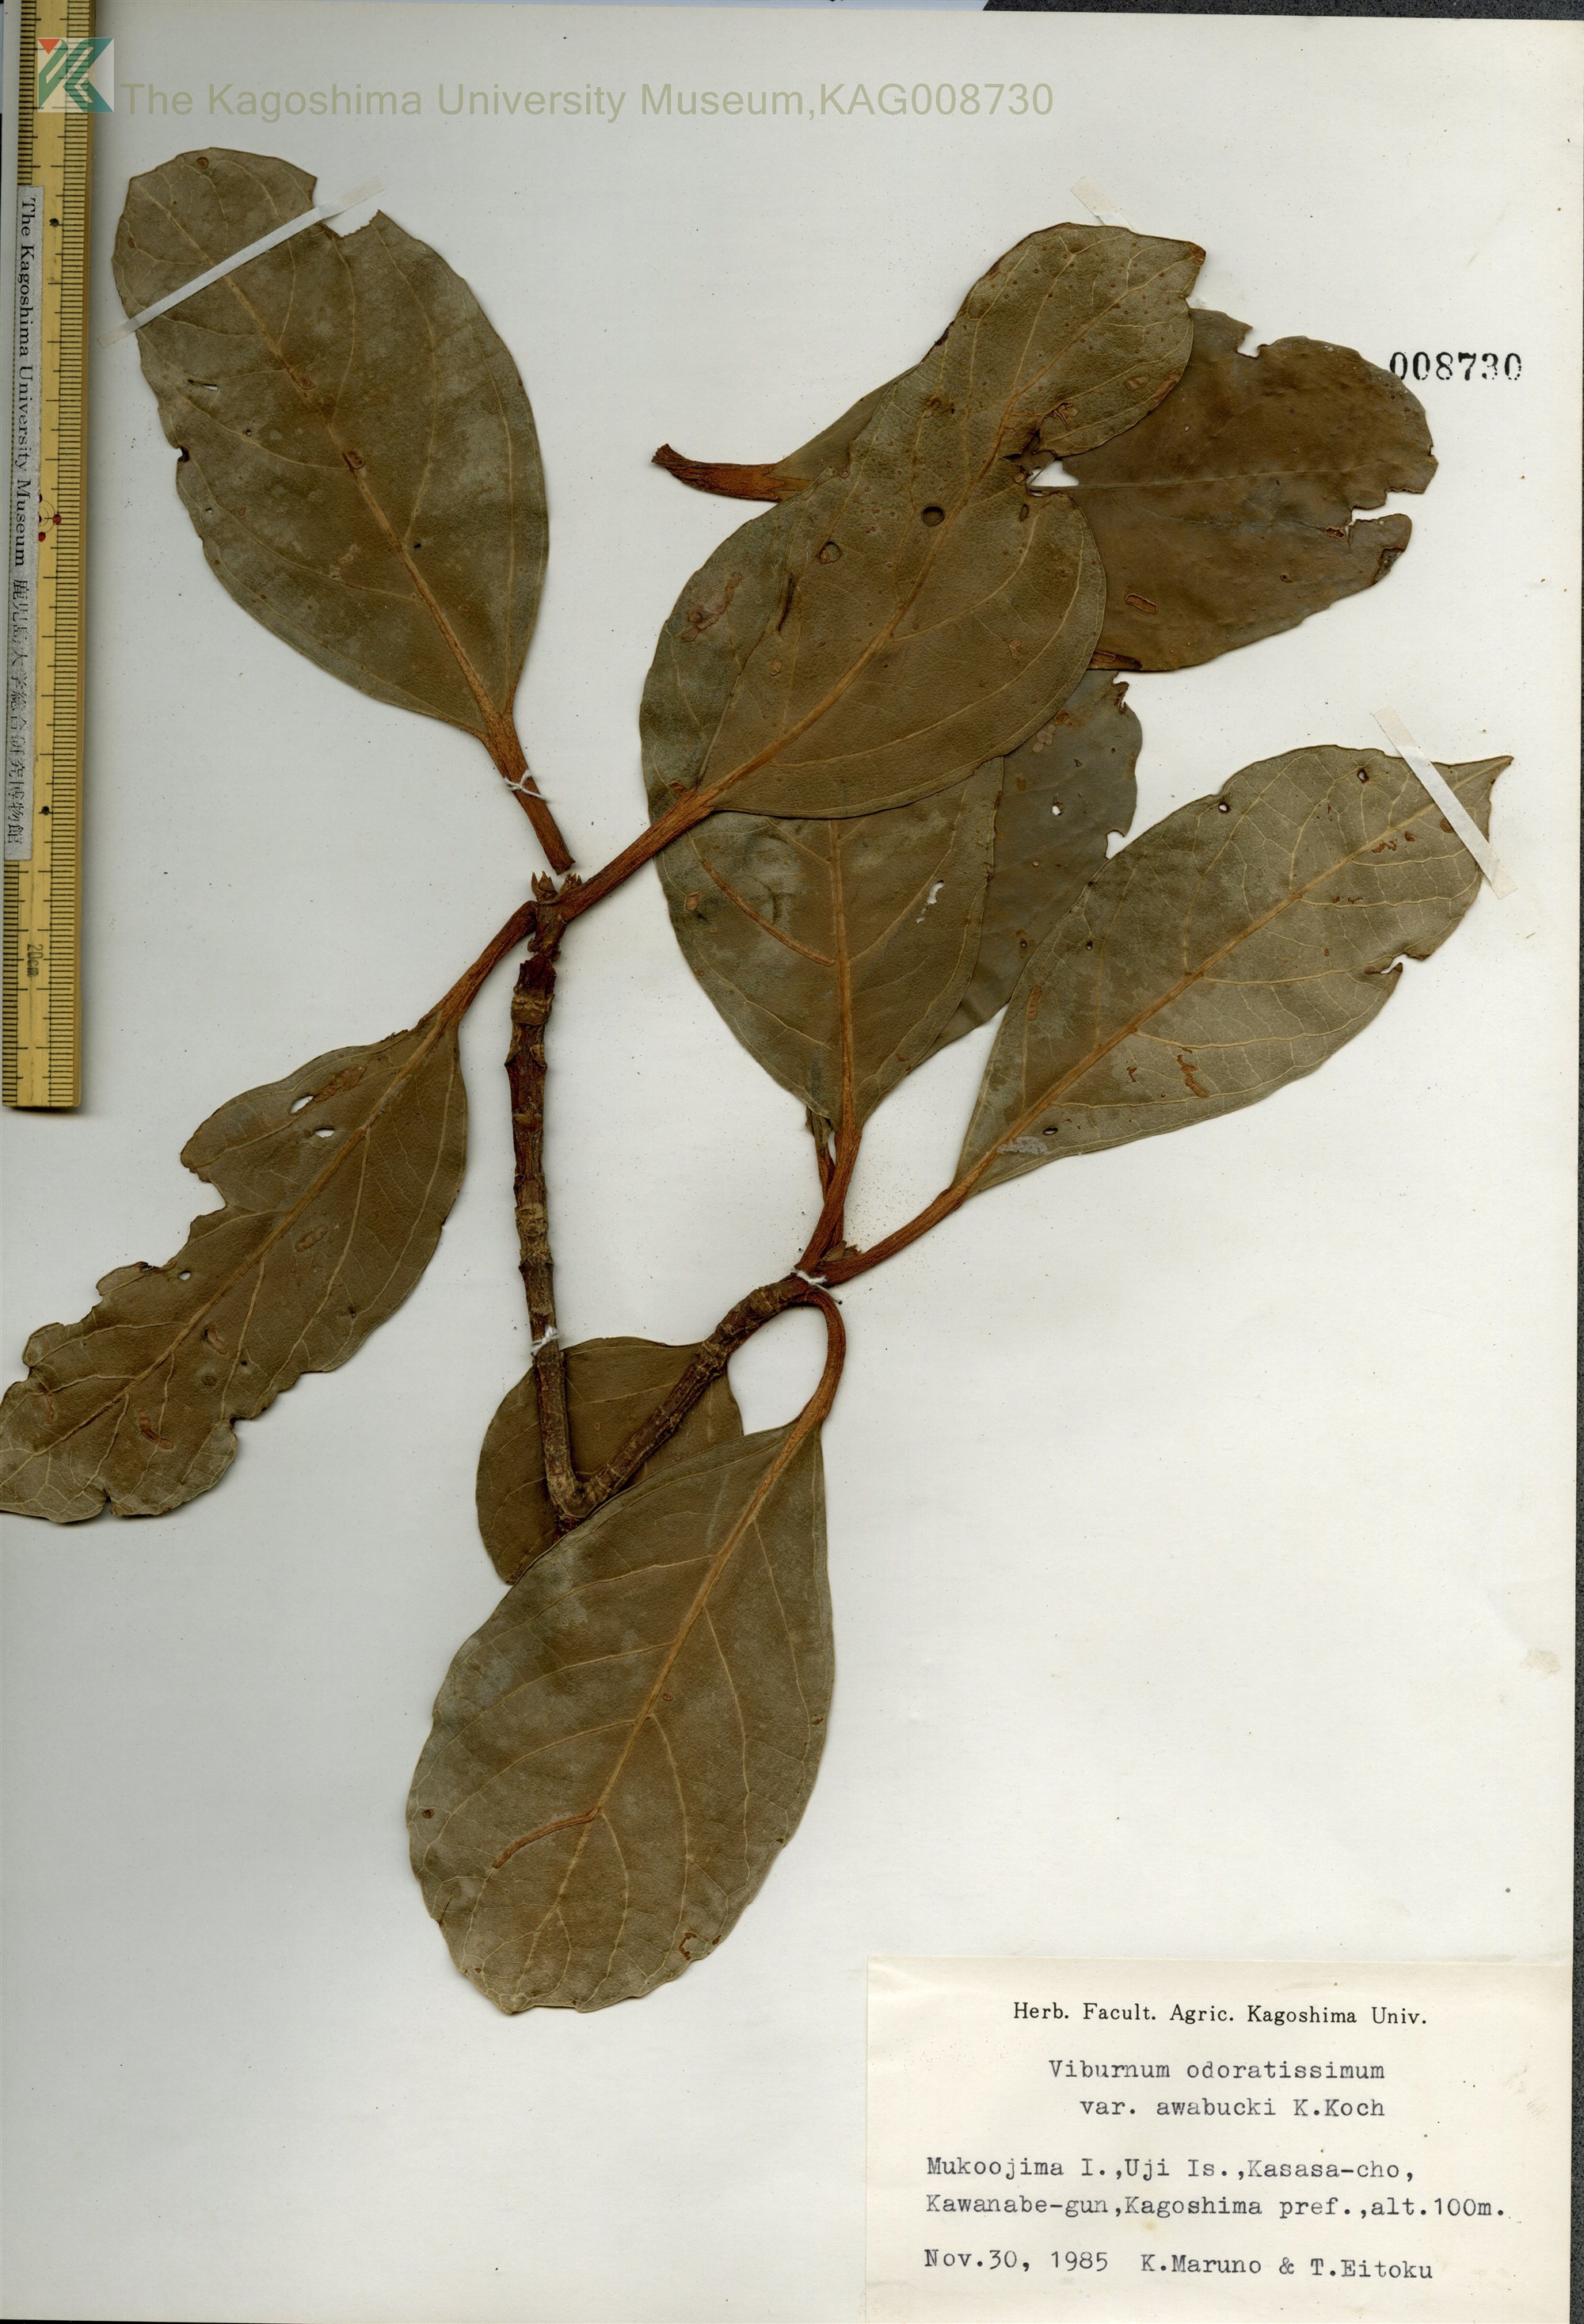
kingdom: Plantae
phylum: Tracheophyta
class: Magnoliopsida
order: Dipsacales
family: Viburnaceae
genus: Viburnum
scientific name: Viburnum odoratissimum
